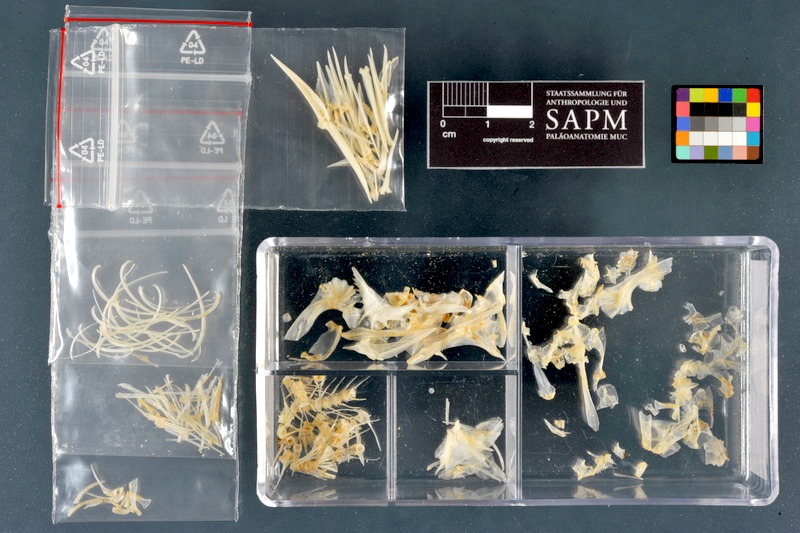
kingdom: Animalia
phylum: Chordata
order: Perciformes
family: Percidae
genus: Gymnocephalus
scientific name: Gymnocephalus cernua
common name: Ruffe
